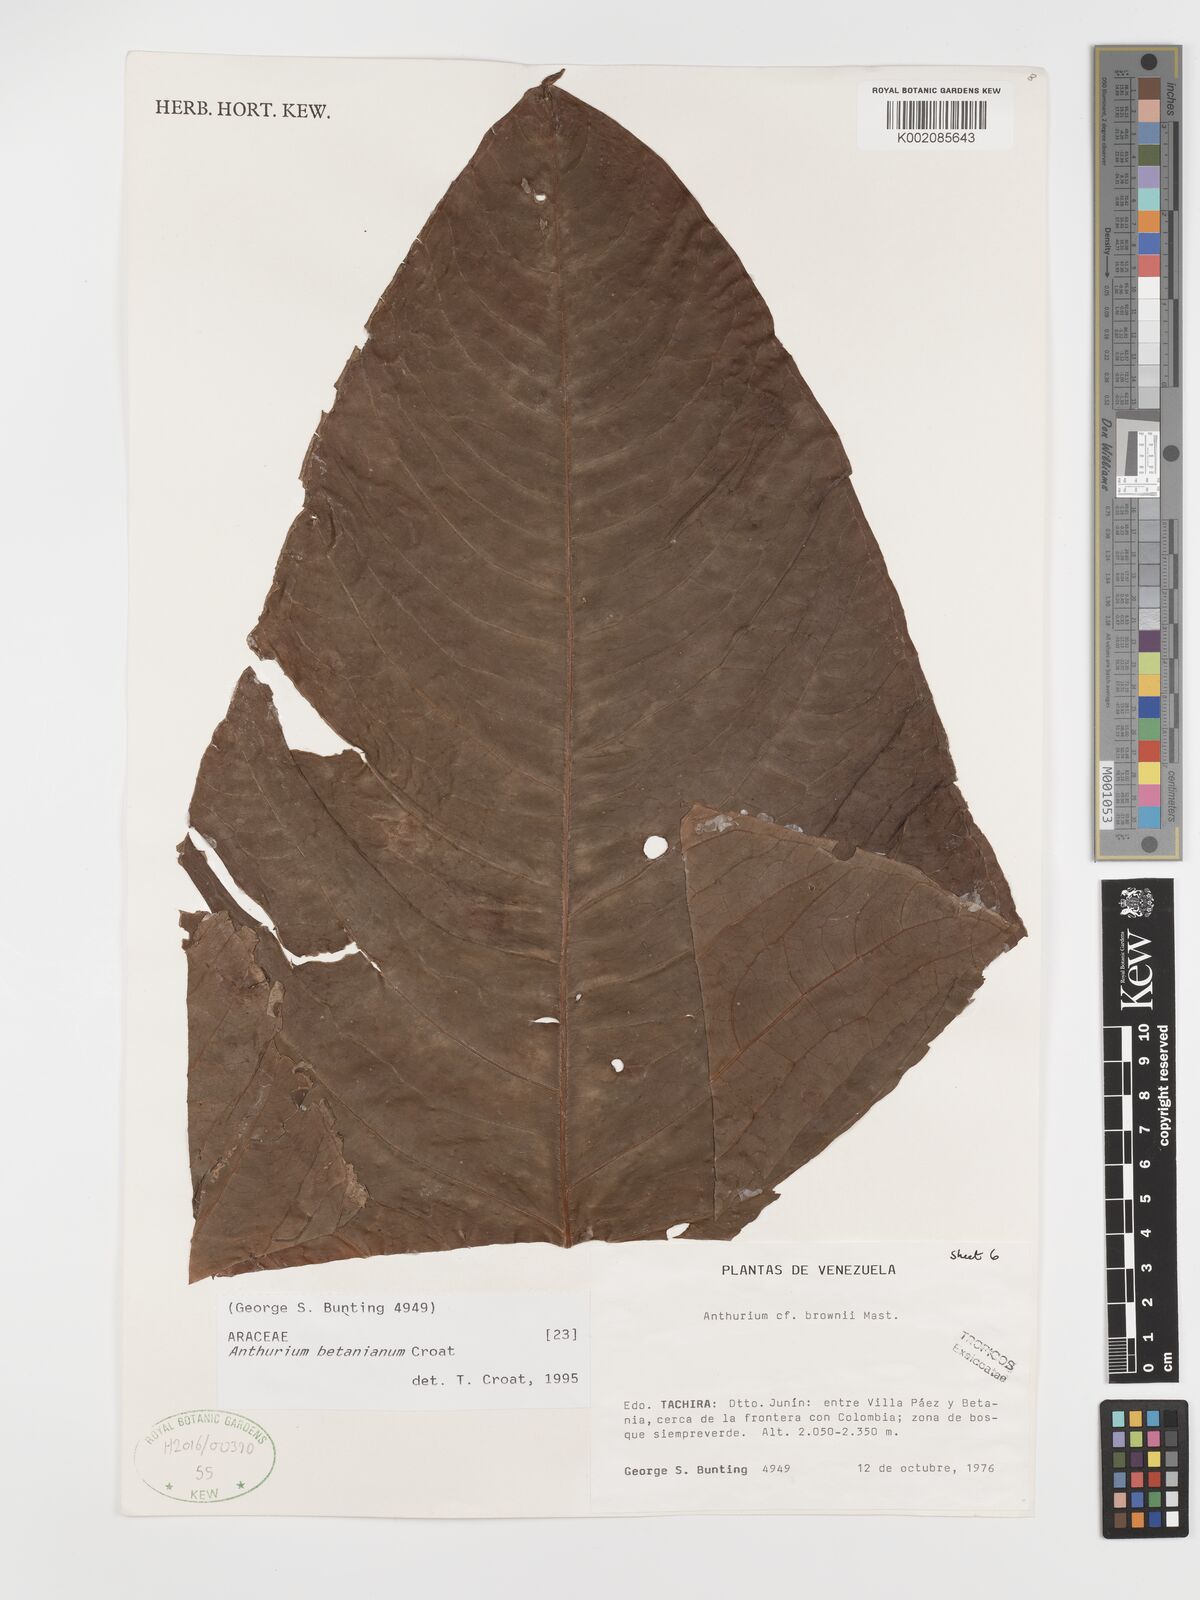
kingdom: Plantae
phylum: Tracheophyta
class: Liliopsida
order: Alismatales
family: Araceae
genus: Anthurium
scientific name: Anthurium betanianum
